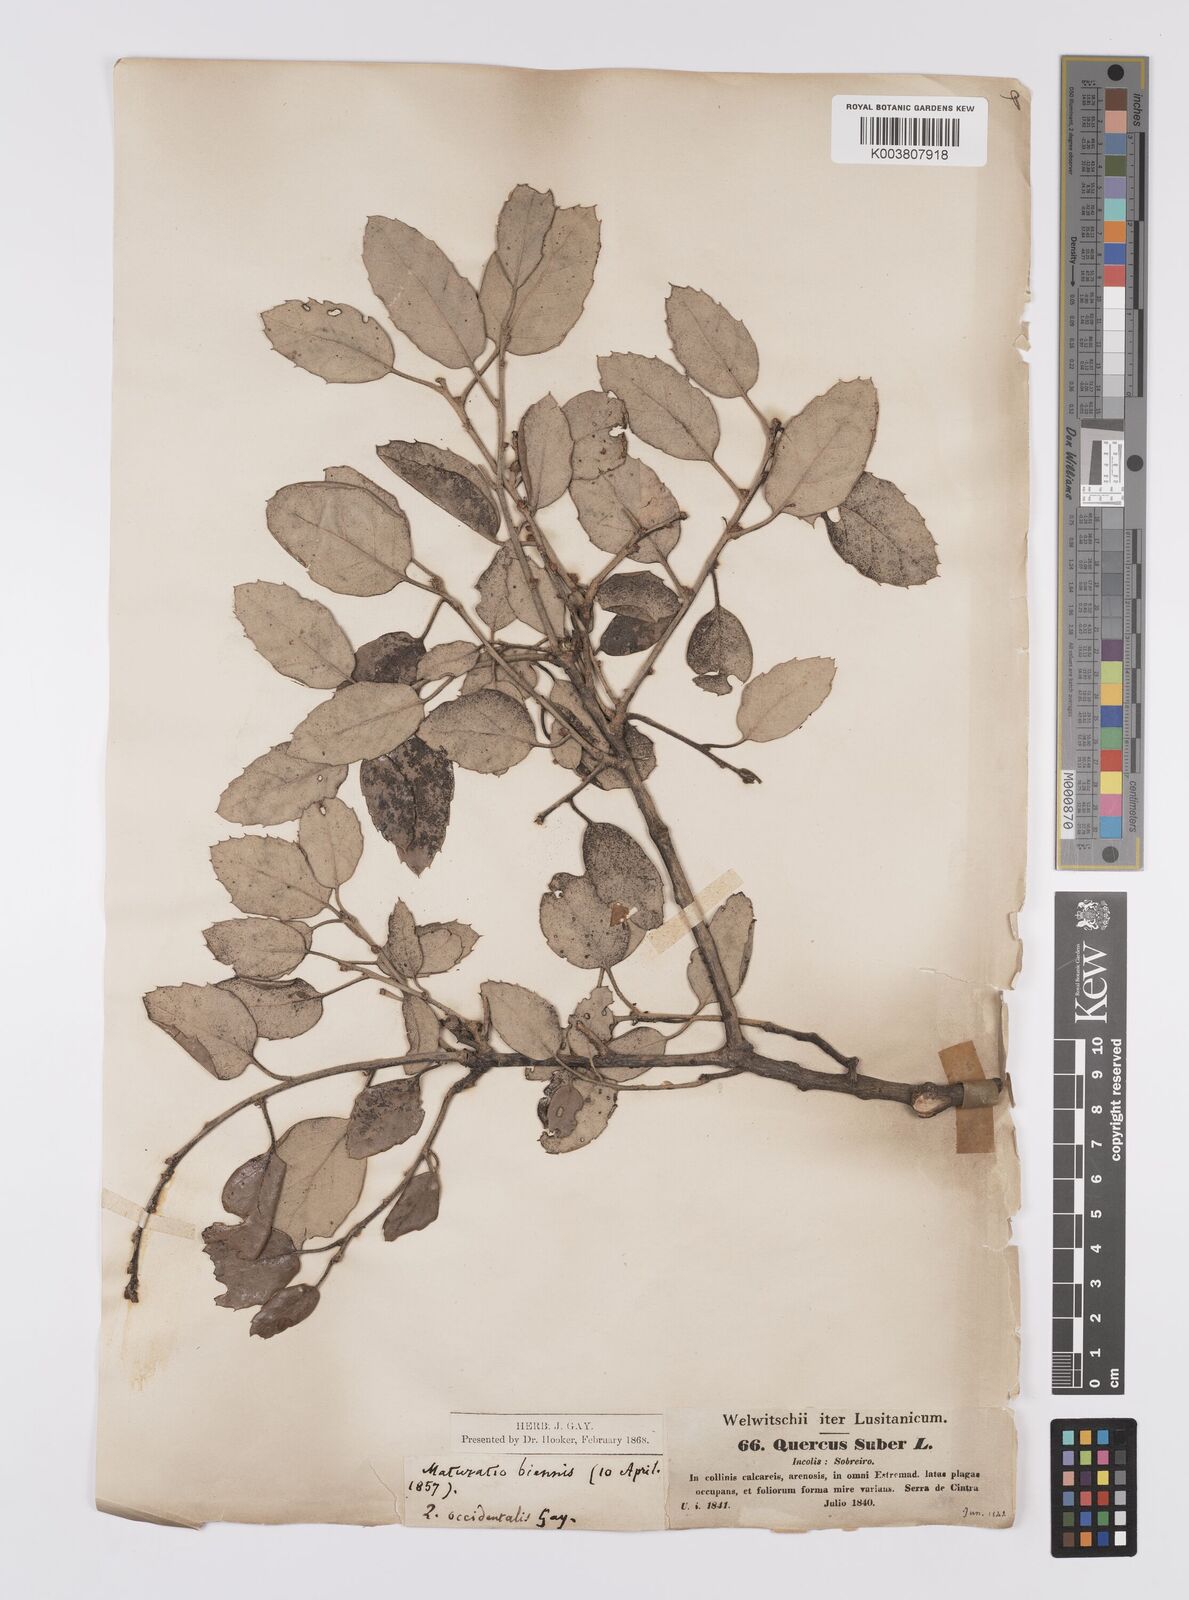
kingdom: Plantae
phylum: Tracheophyta
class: Magnoliopsida
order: Fagales
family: Fagaceae
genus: Quercus
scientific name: Quercus suber
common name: Cork oak
